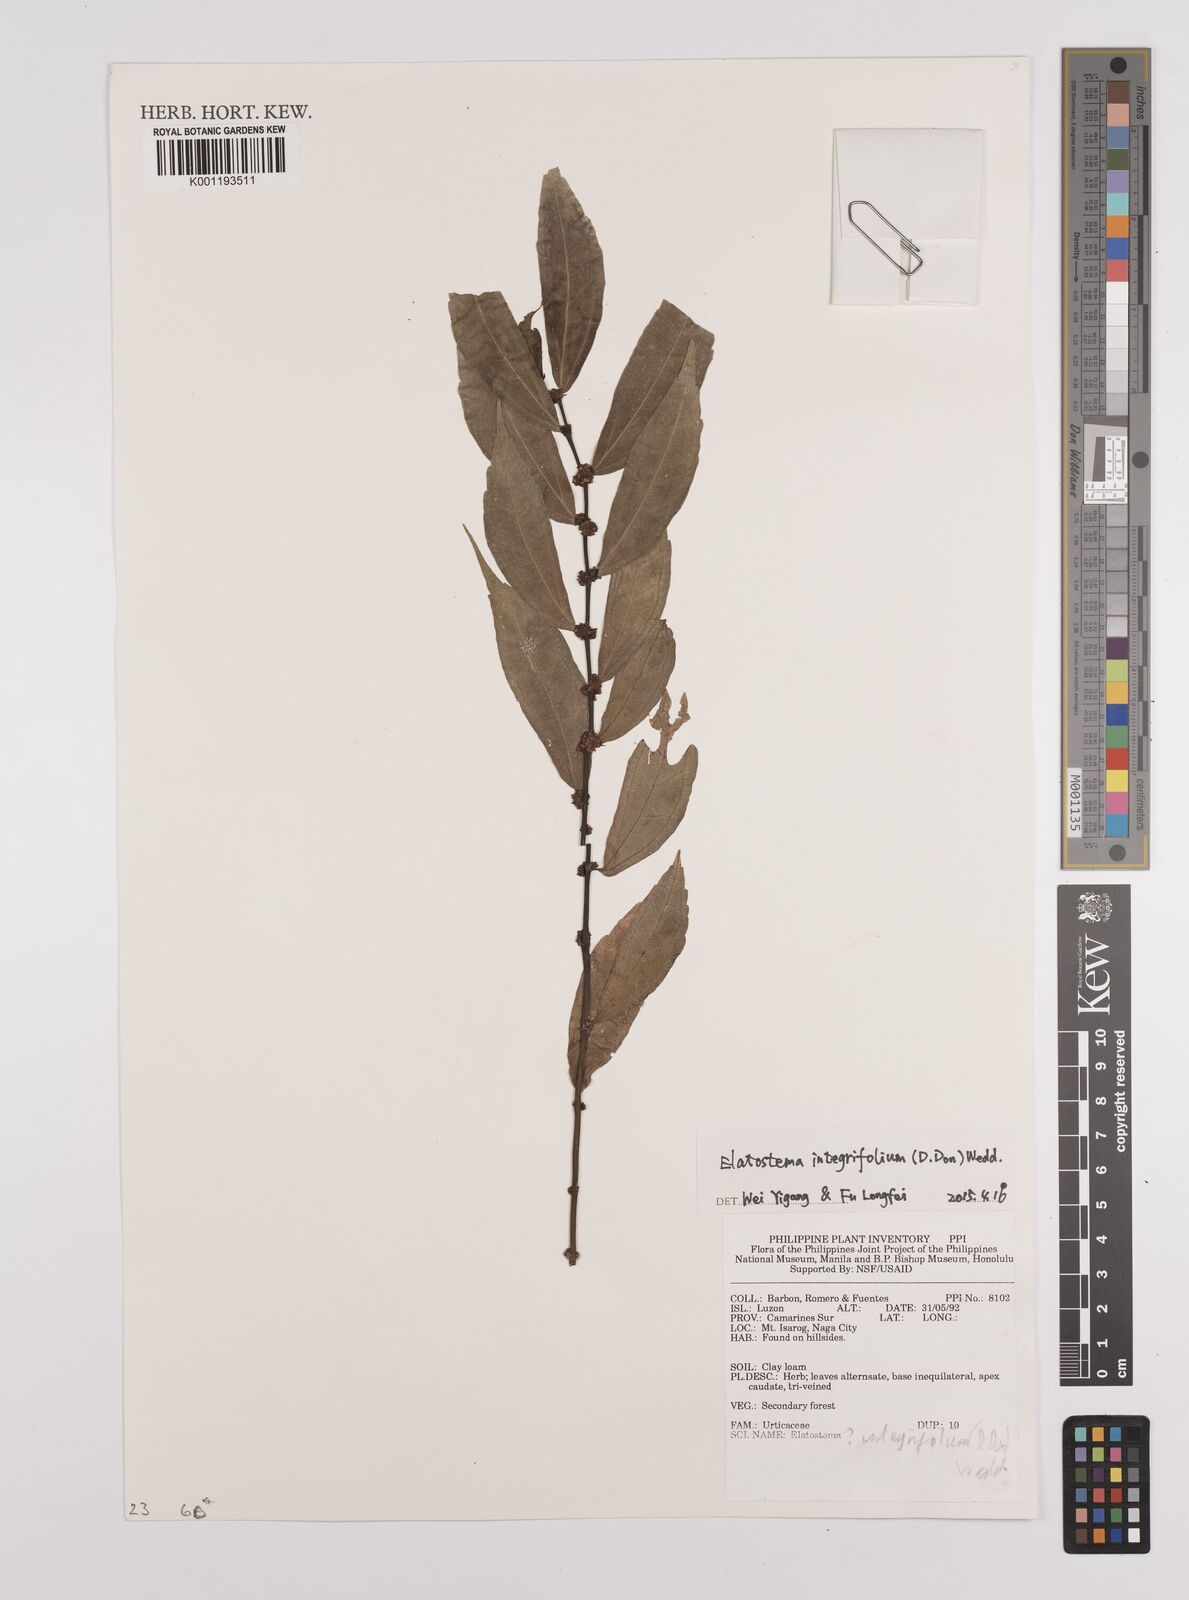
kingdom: Plantae
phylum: Tracheophyta
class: Magnoliopsida
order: Rosales
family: Urticaceae
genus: Elatostema
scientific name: Elatostema integrifolium
